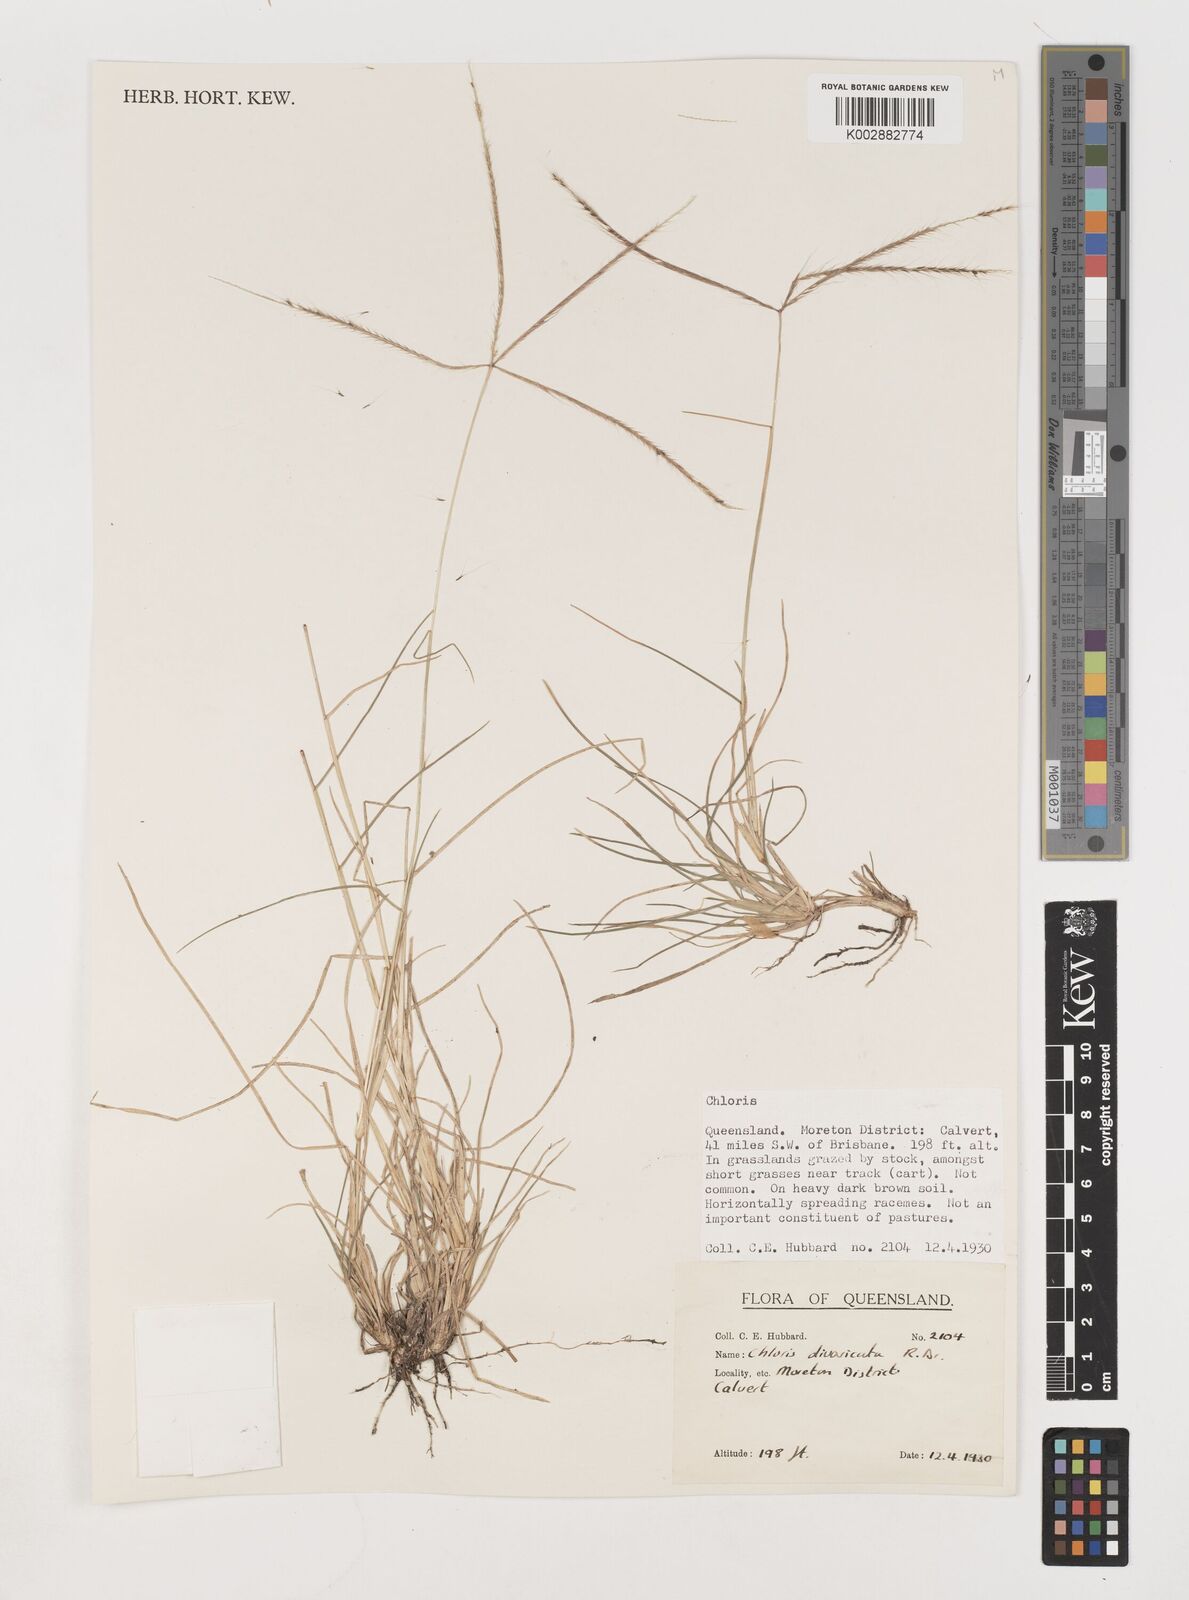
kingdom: Plantae
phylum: Tracheophyta
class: Liliopsida
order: Poales
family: Poaceae
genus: Chloris
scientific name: Chloris divaricata
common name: Spreading windmill grass
